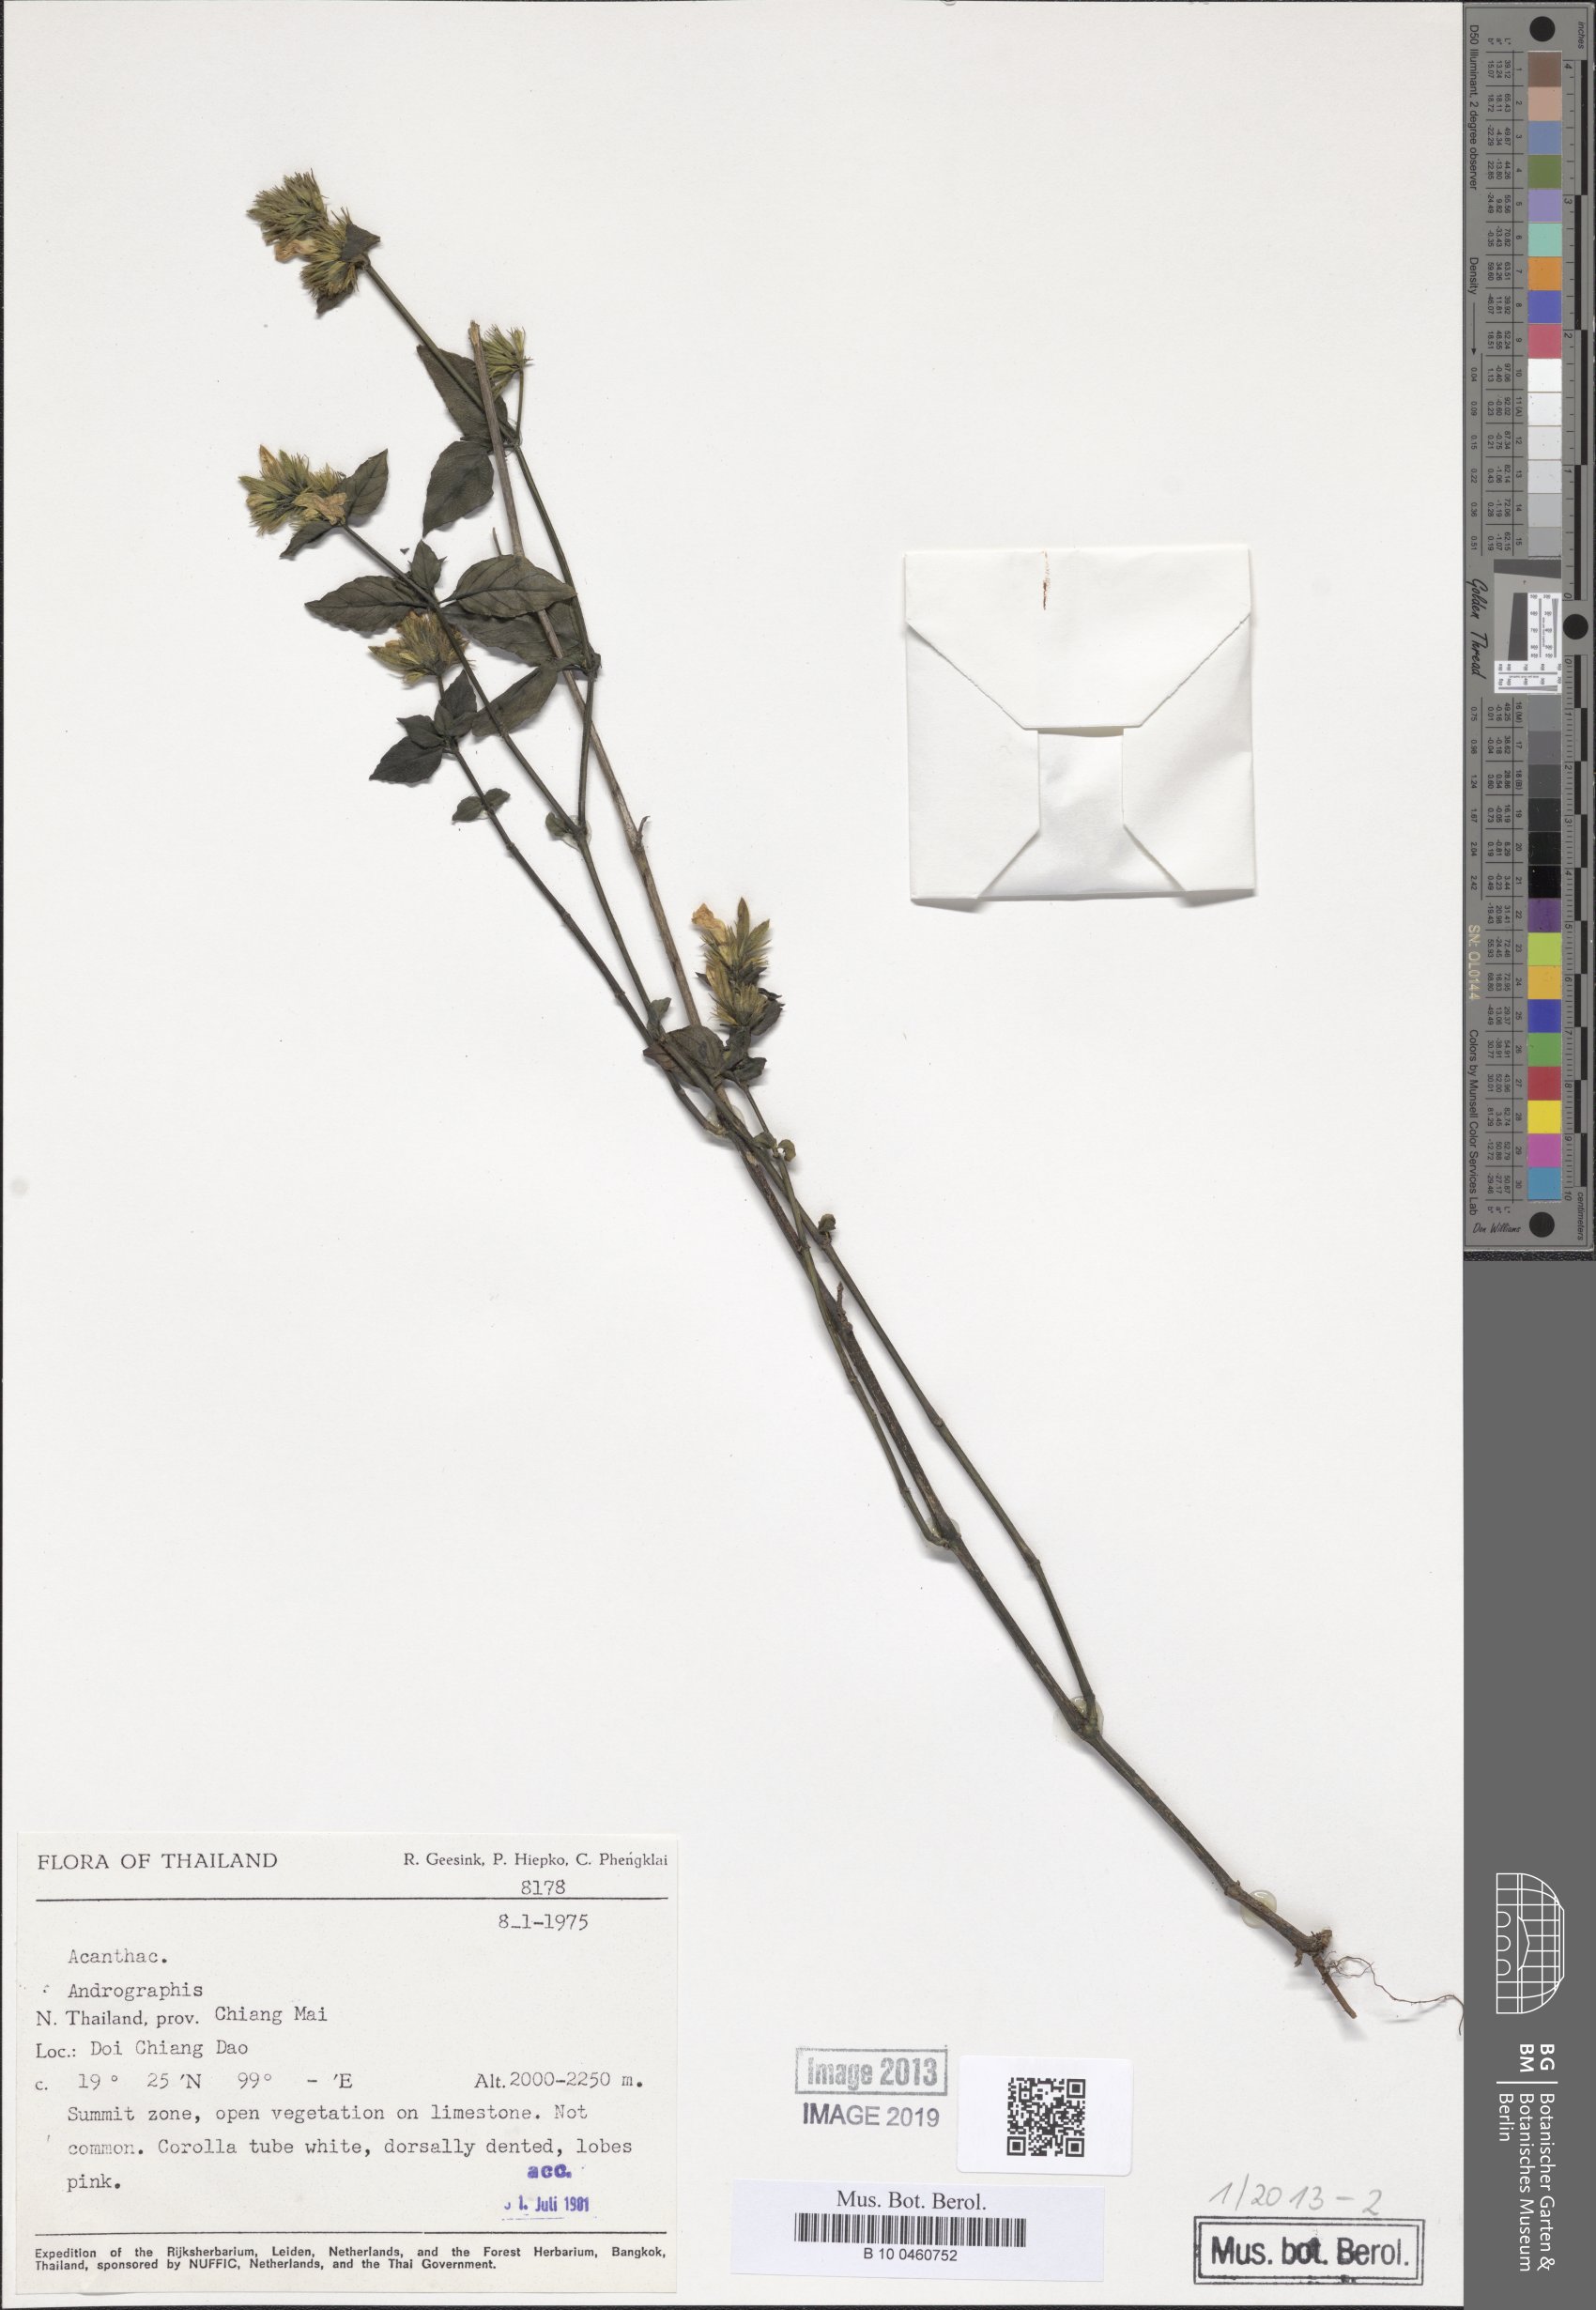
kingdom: Plantae
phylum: Tracheophyta
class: Magnoliopsida
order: Lamiales
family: Acanthaceae
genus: Andrographis
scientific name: Andrographis
